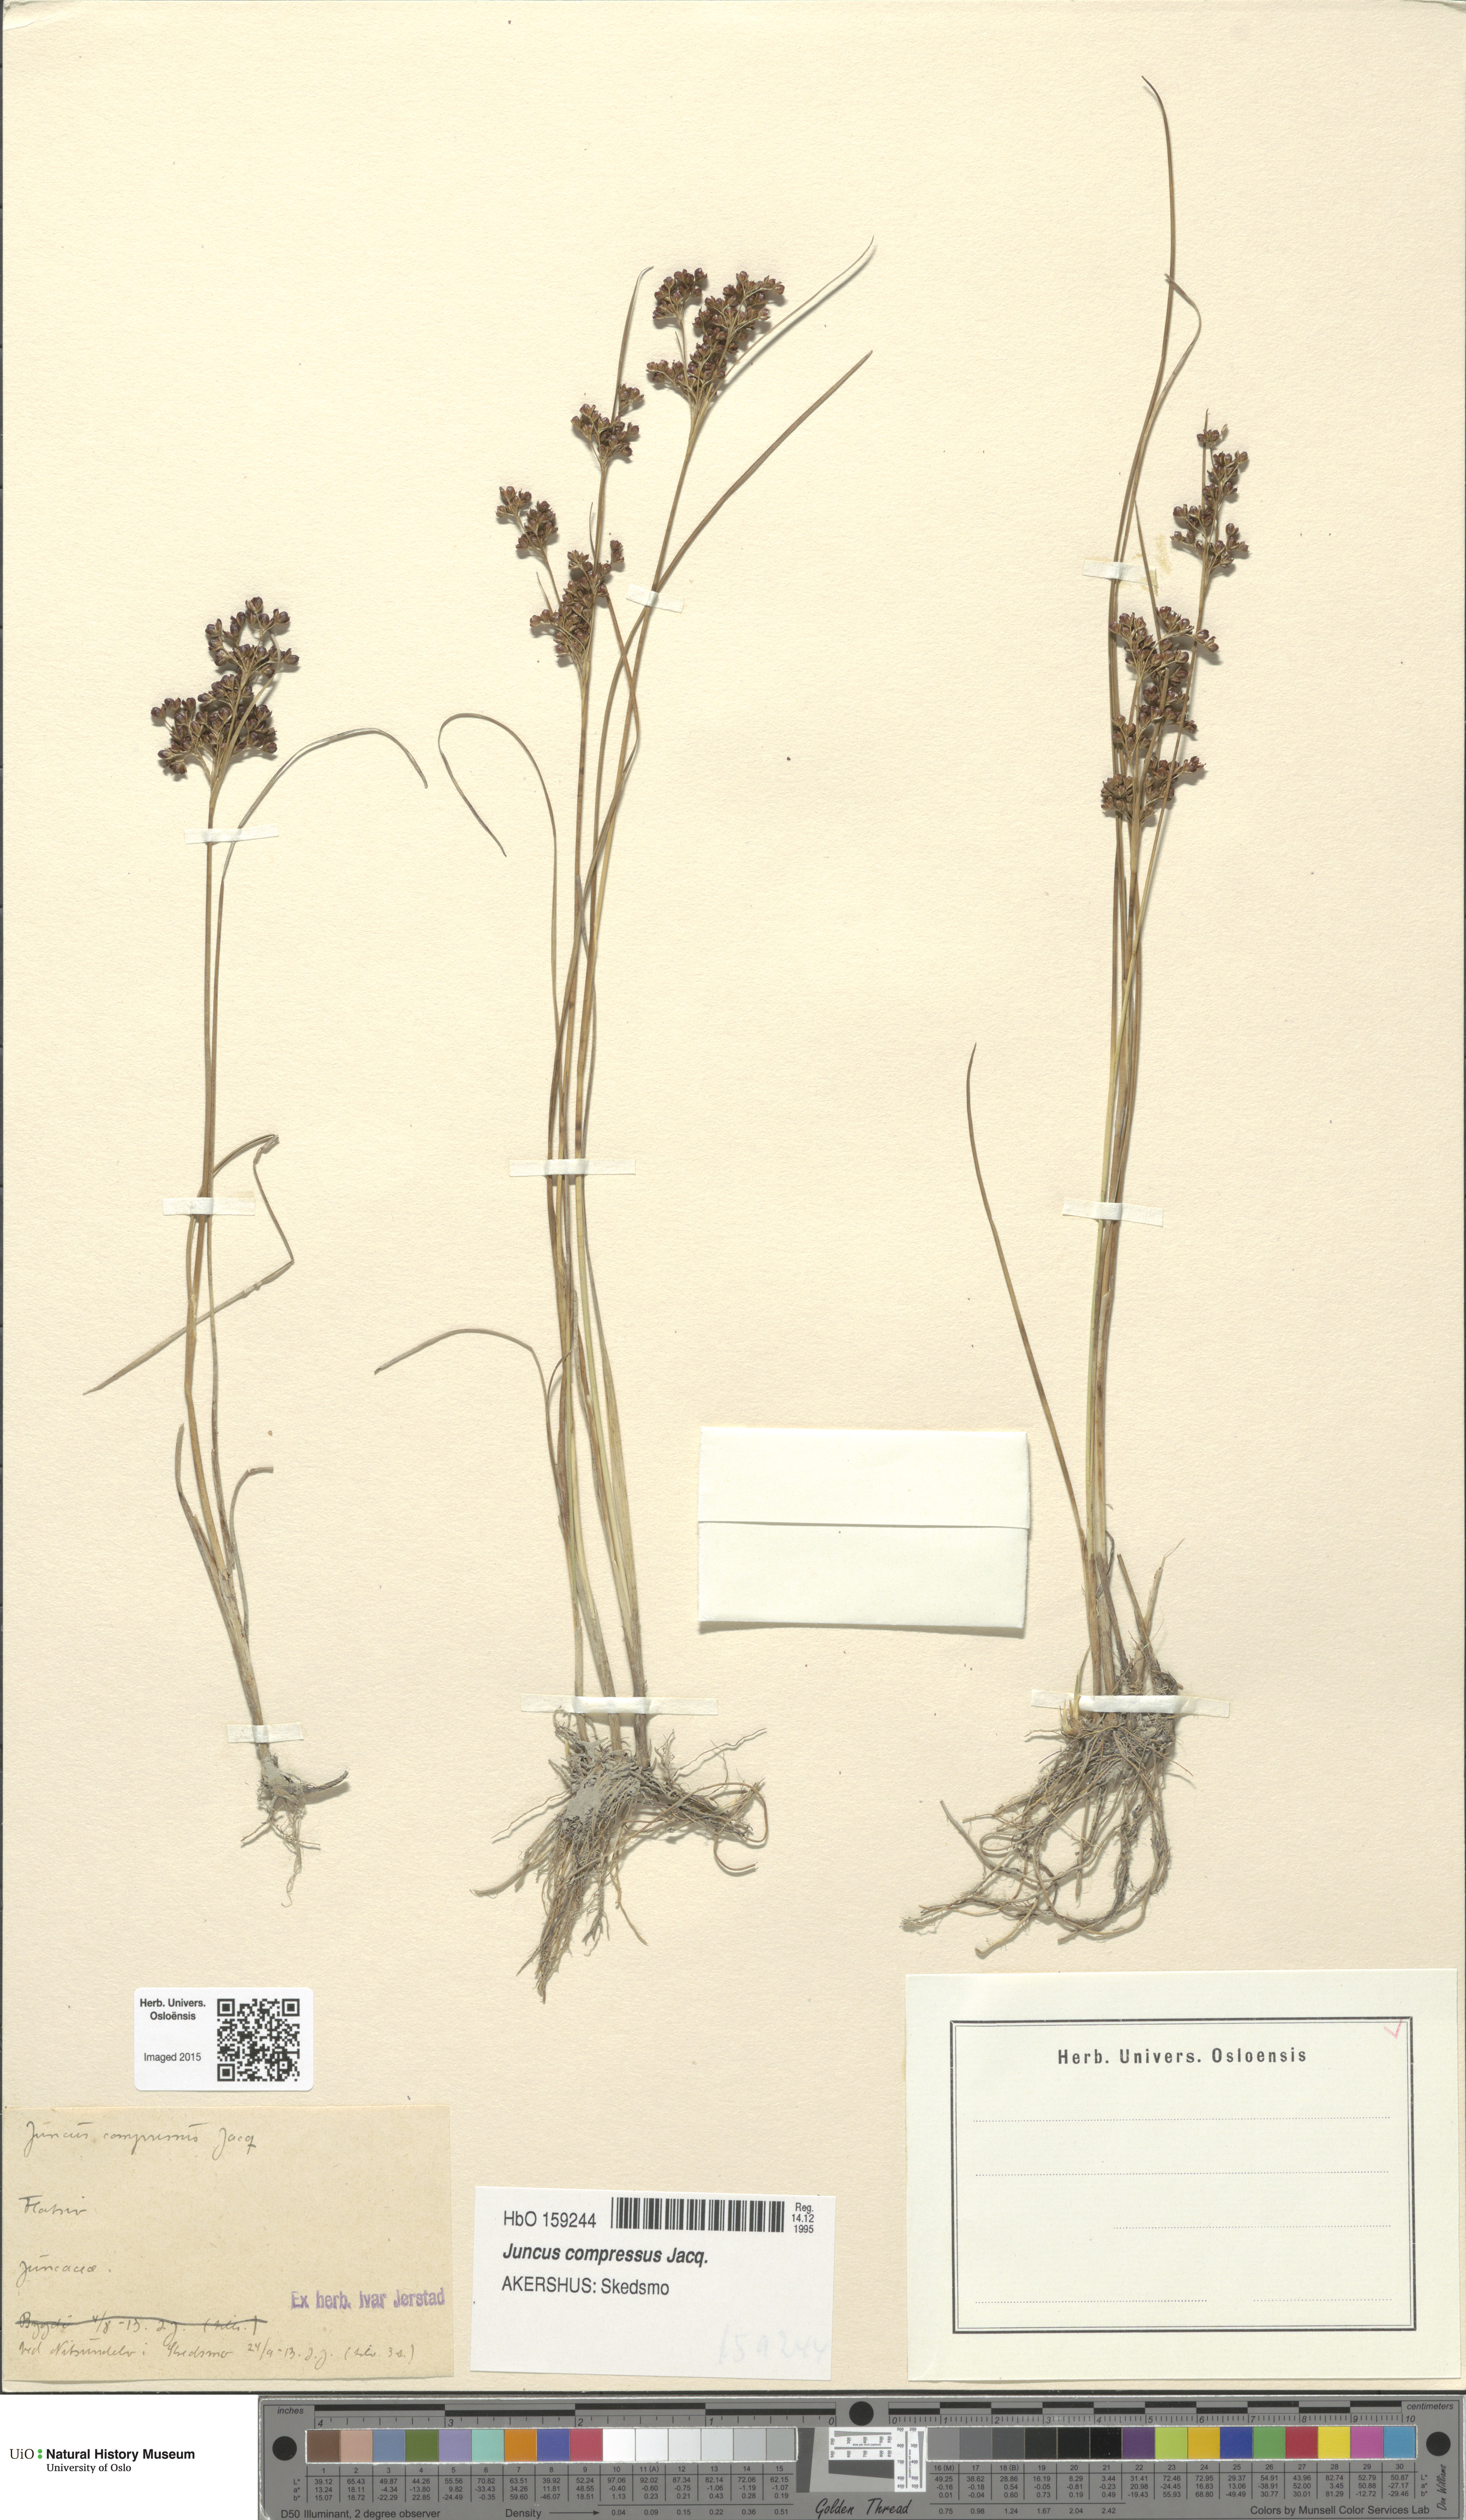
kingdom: Plantae
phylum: Tracheophyta
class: Liliopsida
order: Poales
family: Juncaceae
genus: Juncus
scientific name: Juncus compressus
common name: Round-fruited rush
